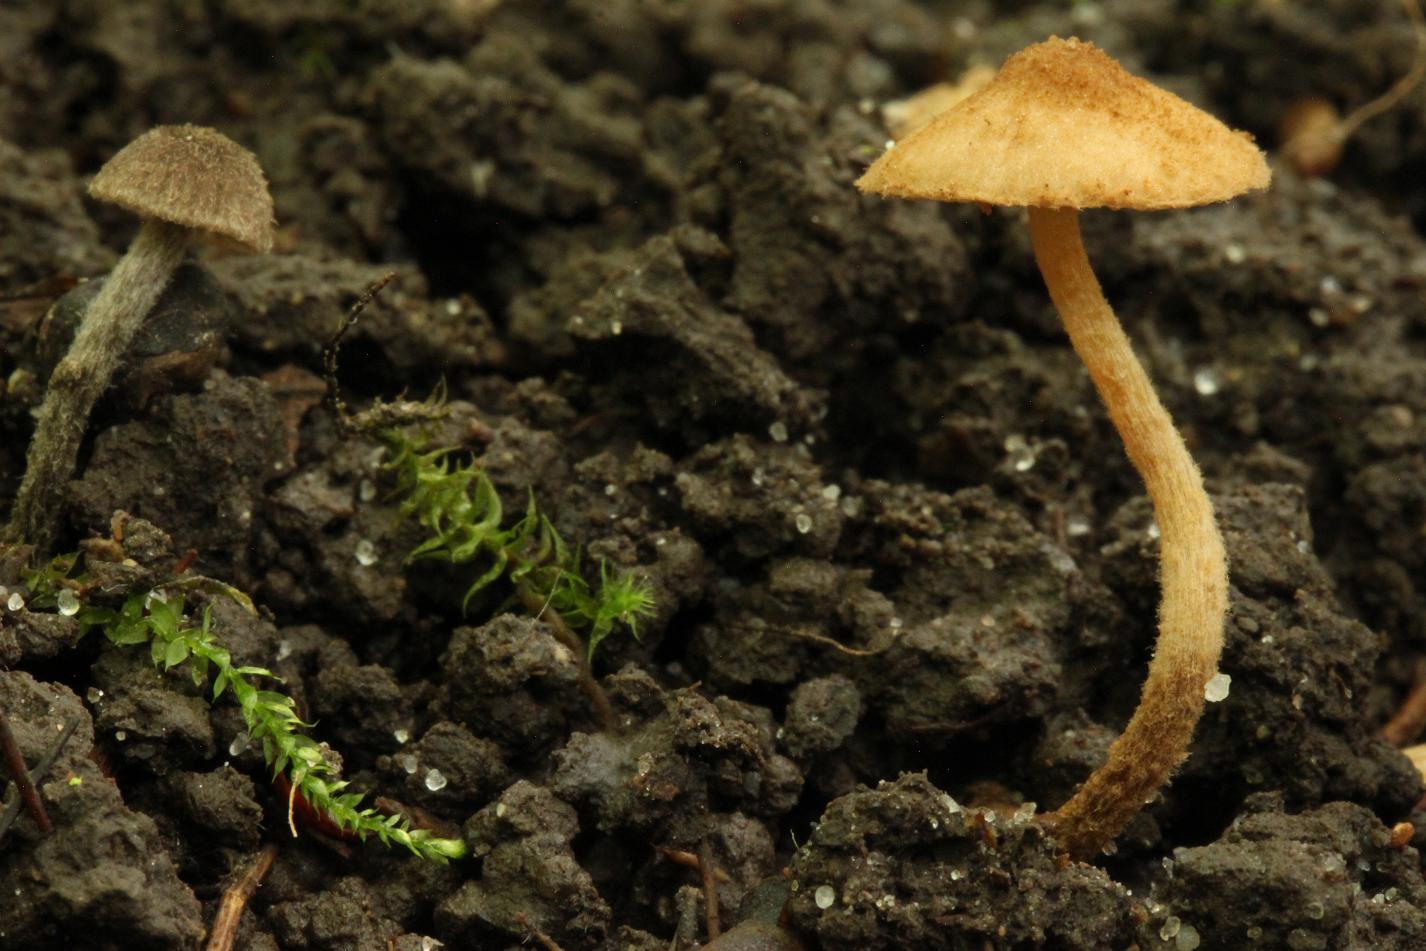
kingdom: Fungi
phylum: Basidiomycota
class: Agaricomycetes
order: Agaricales
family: Tubariaceae
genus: Flammulaster
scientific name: Flammulaster granulosus
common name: gulbrun grynskælhat
